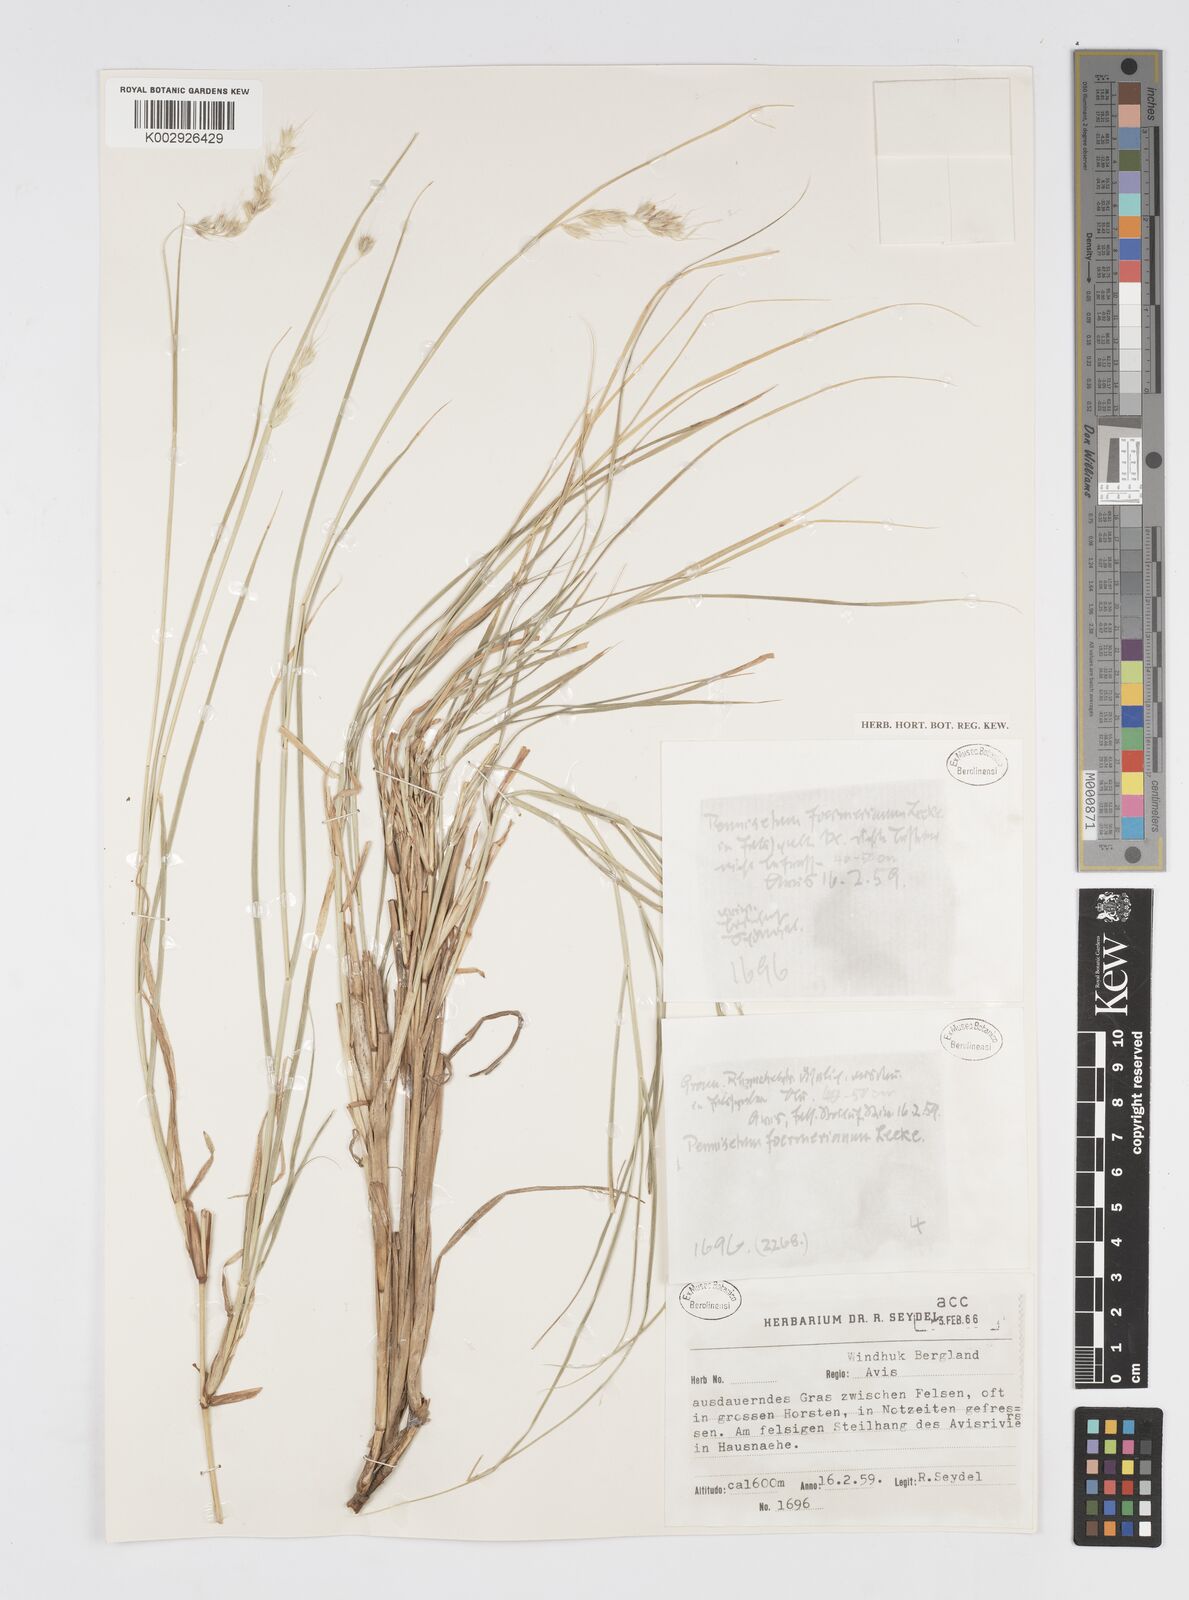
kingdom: Plantae
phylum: Tracheophyta
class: Liliopsida
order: Poales
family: Poaceae
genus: Cenchrus
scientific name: Cenchrus foermerianus
